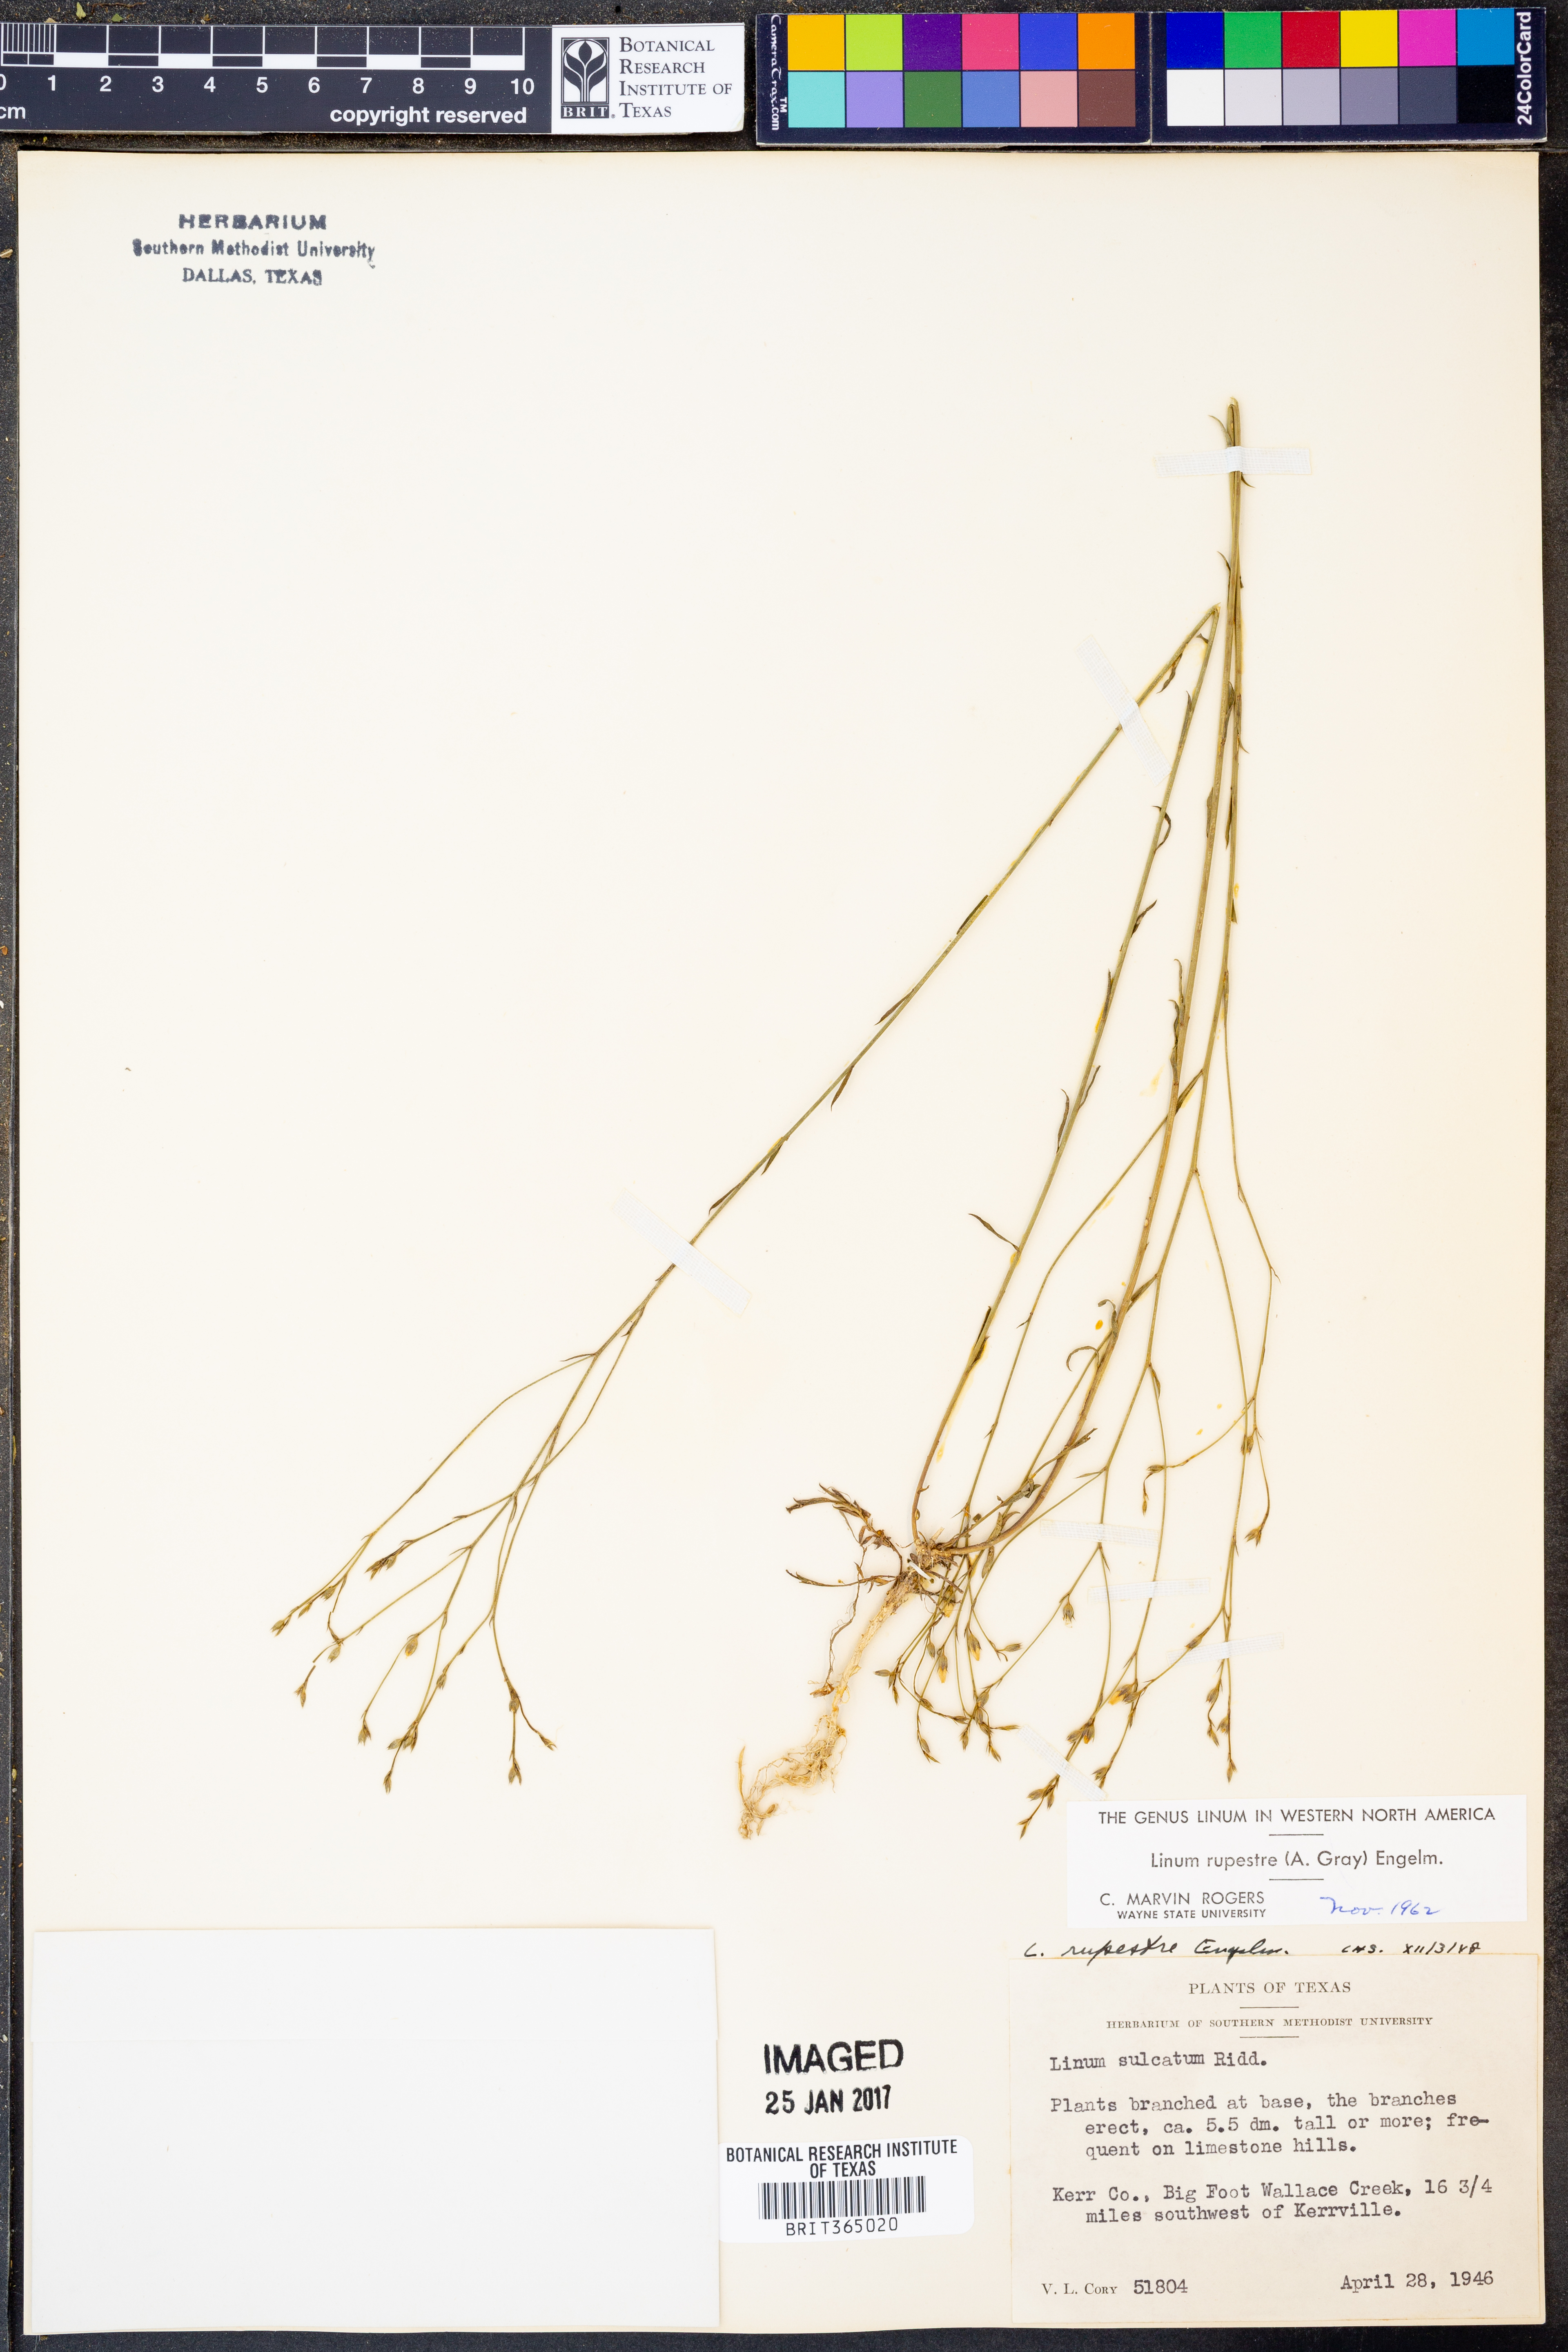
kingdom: Plantae
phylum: Tracheophyta
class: Magnoliopsida
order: Malpighiales
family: Linaceae
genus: Linum
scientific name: Linum rupestre
